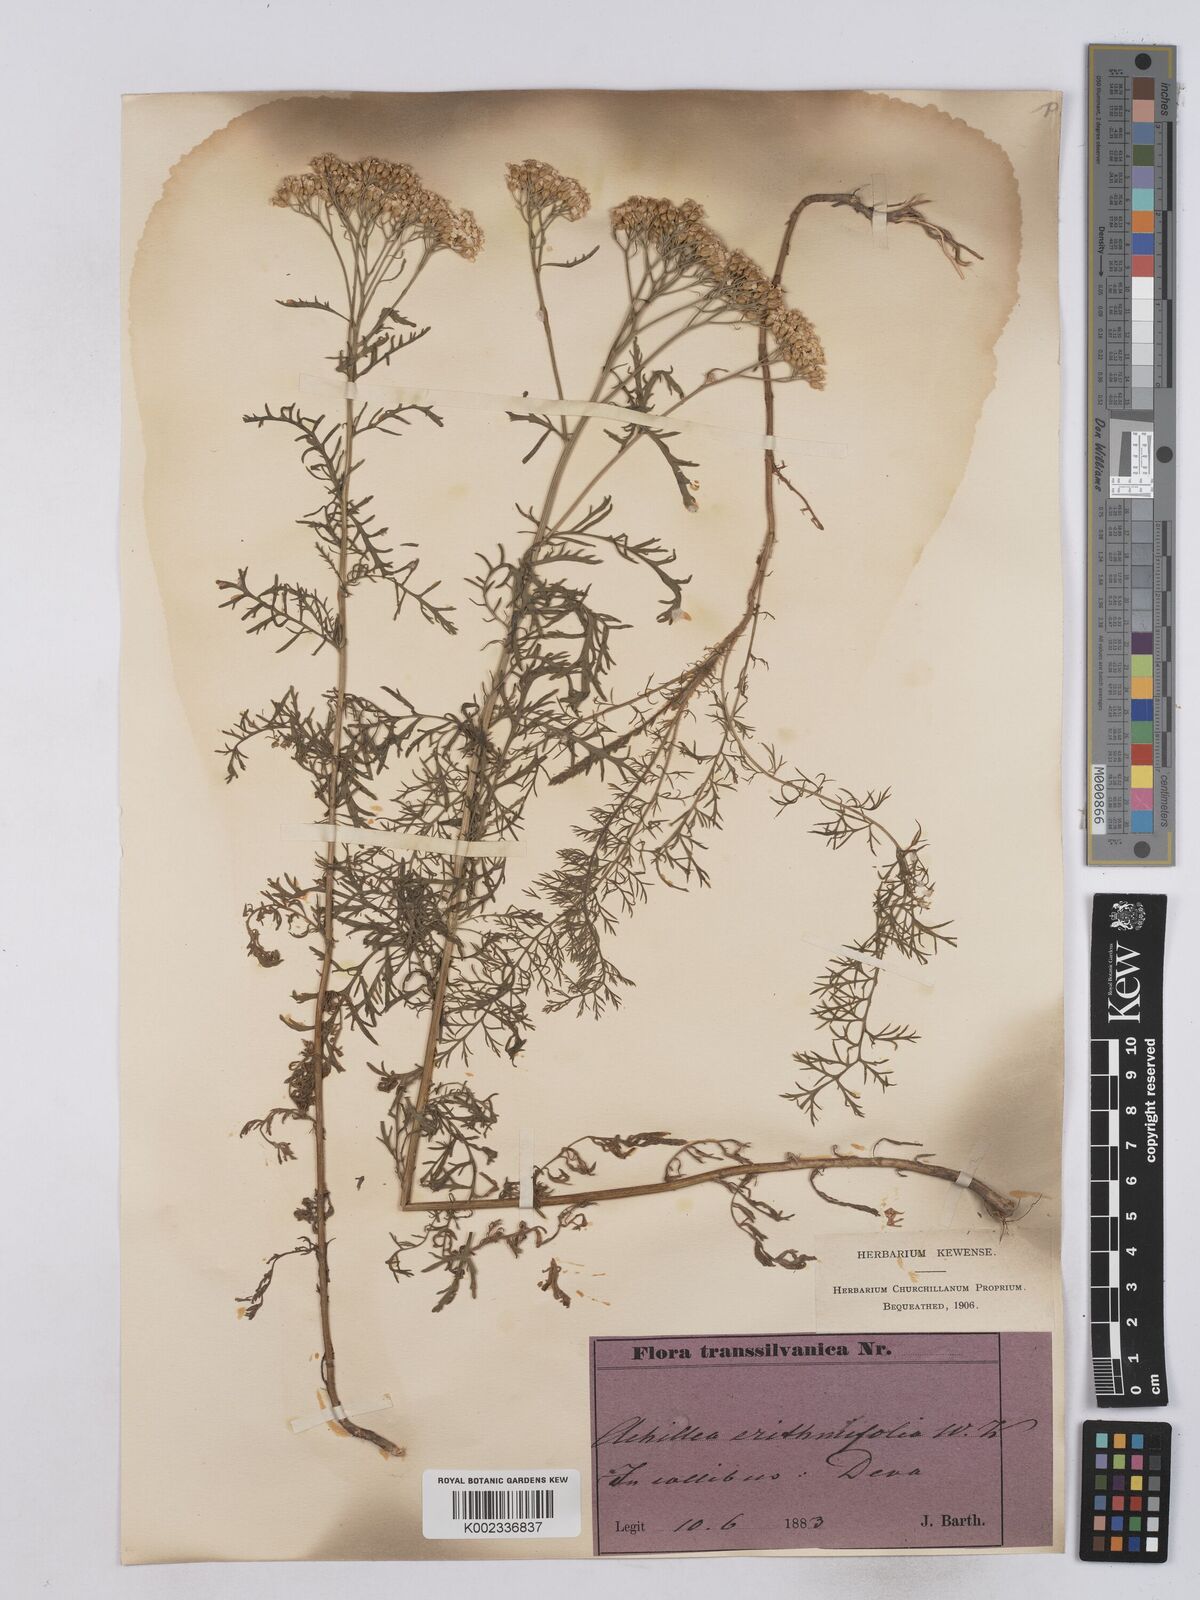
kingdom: Plantae
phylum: Tracheophyta
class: Magnoliopsida
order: Asterales
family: Asteraceae
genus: Achillea
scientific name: Achillea crithmifolia
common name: Yarrow
